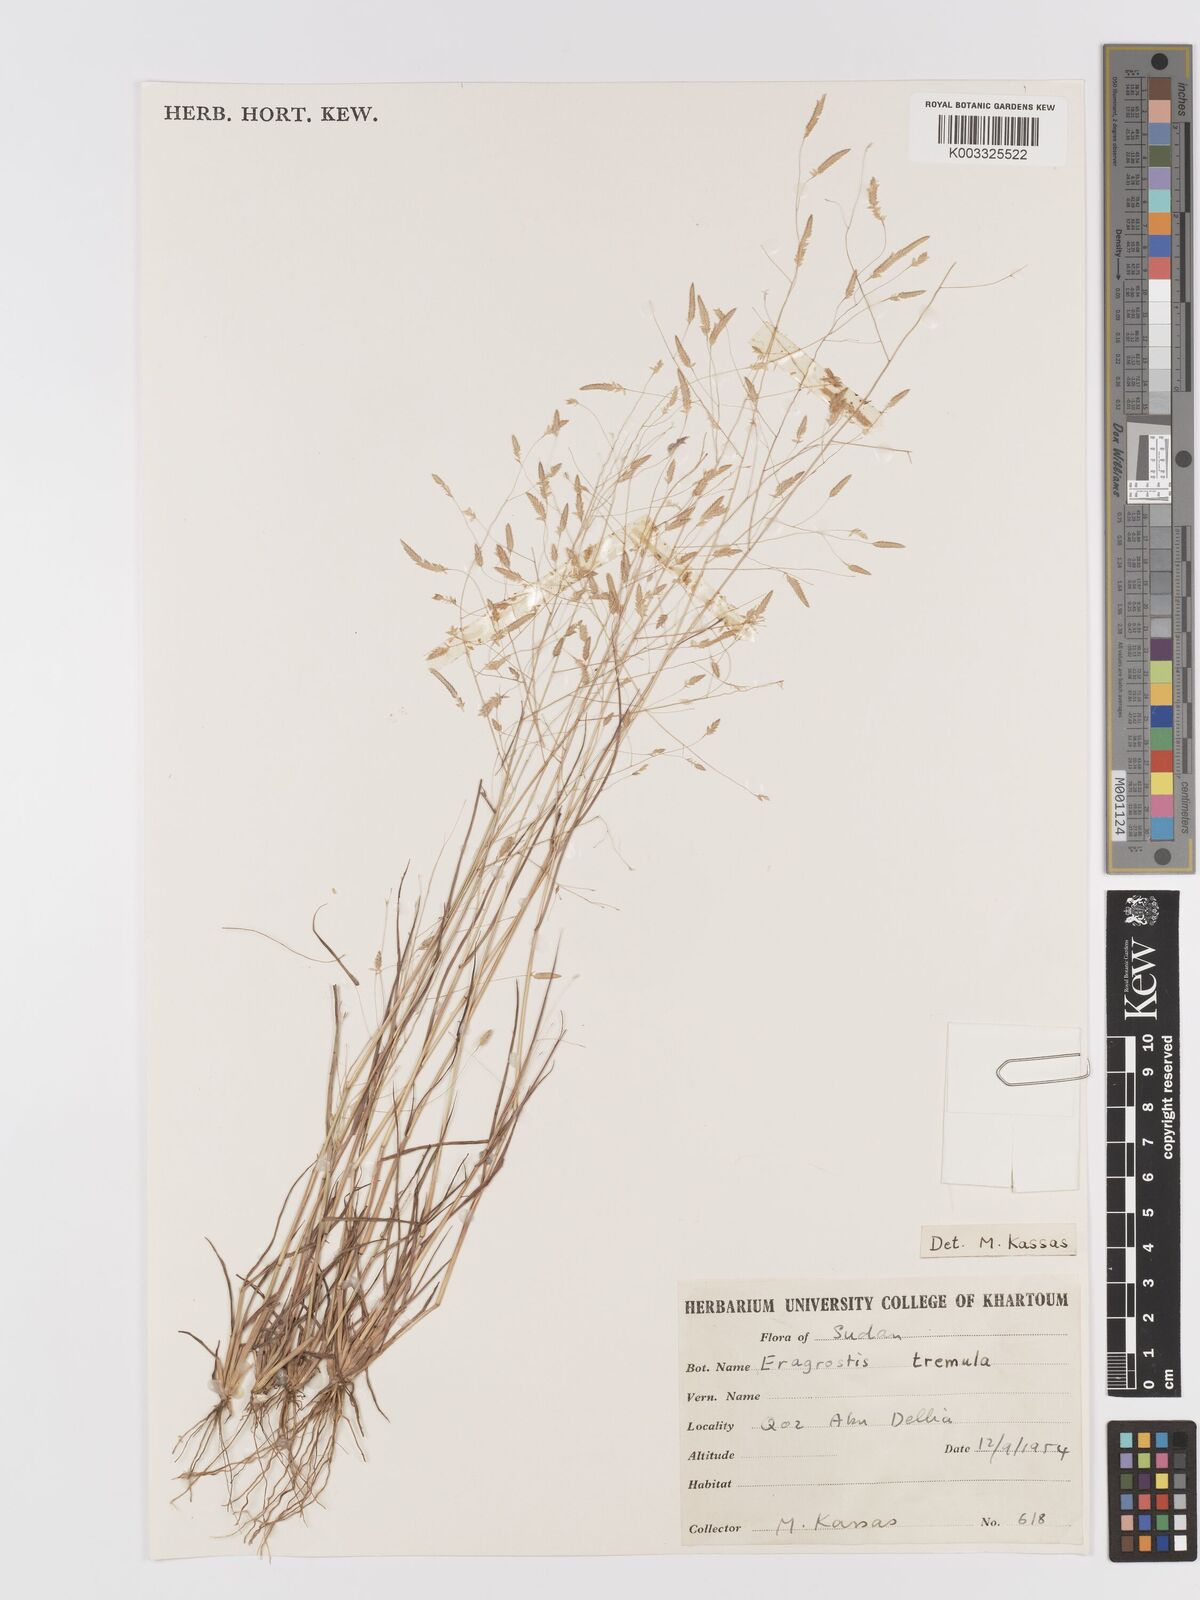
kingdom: Plantae
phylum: Tracheophyta
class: Liliopsida
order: Poales
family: Poaceae
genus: Eragrostis
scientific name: Eragrostis tremula
